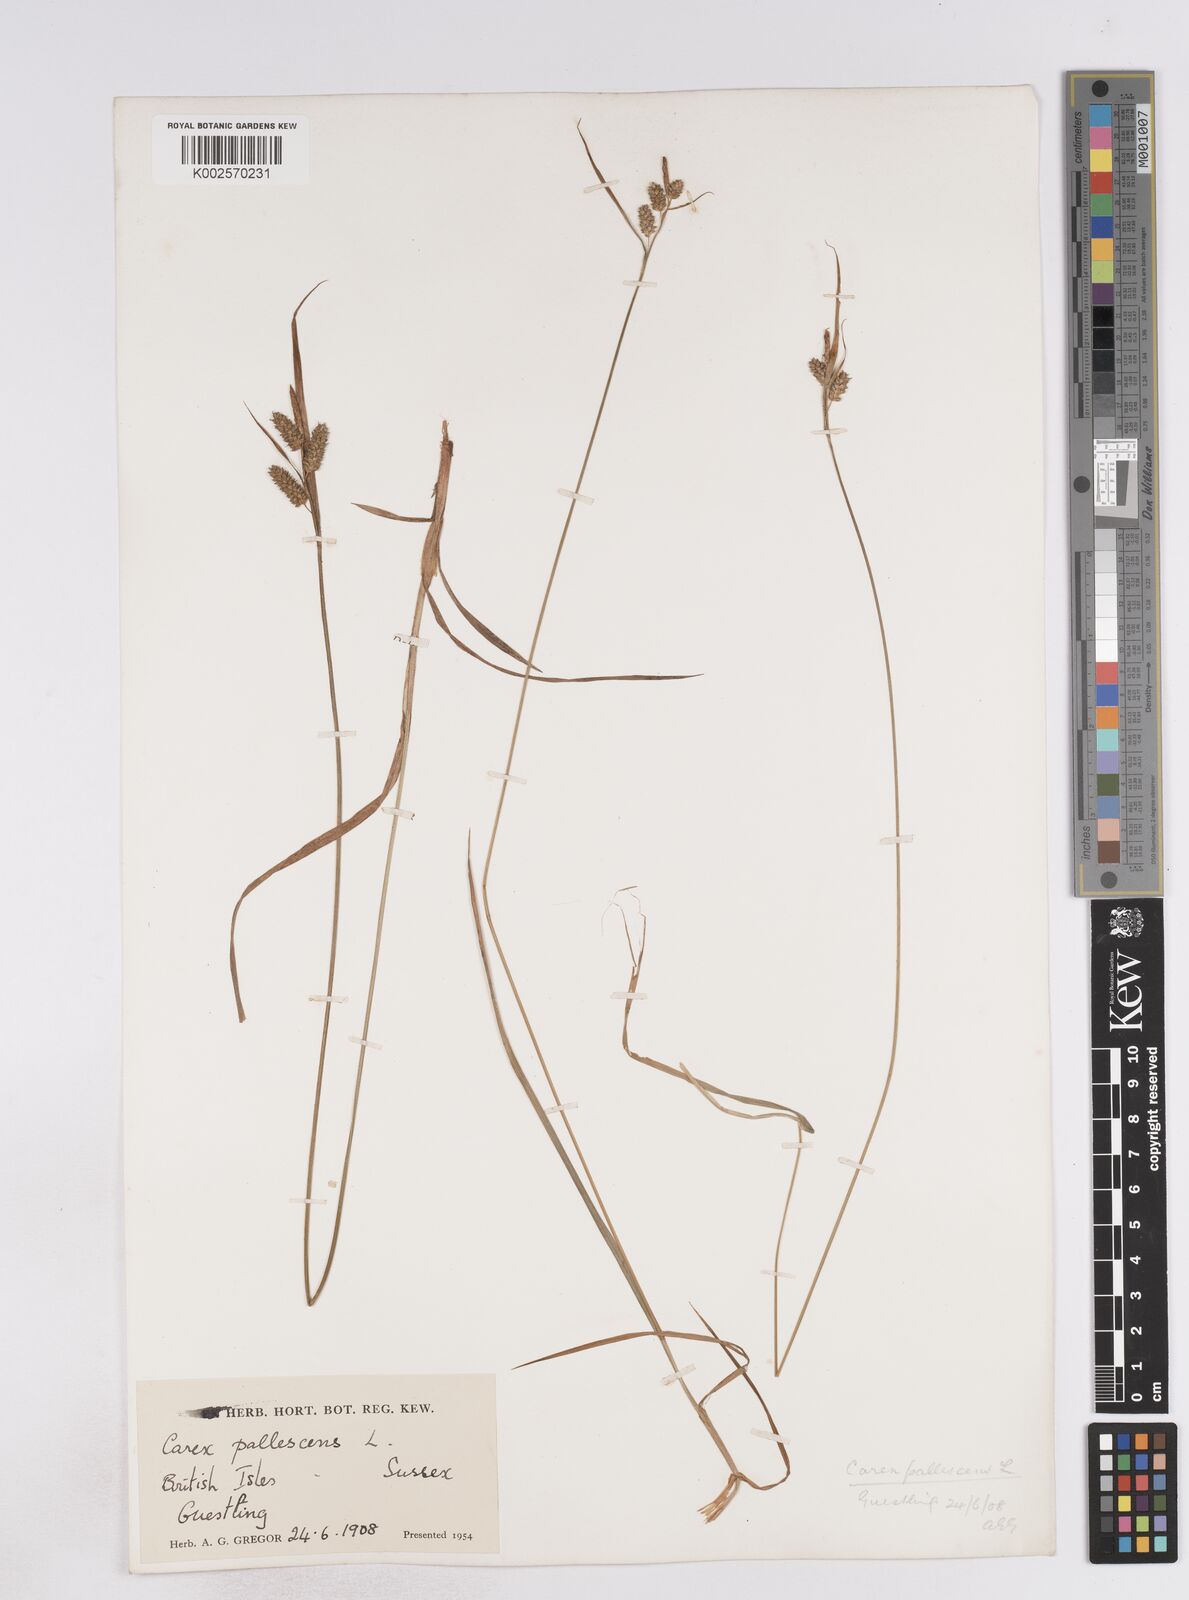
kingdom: Plantae
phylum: Tracheophyta
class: Liliopsida
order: Poales
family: Cyperaceae
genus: Carex
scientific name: Carex pallescens
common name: Pale sedge
